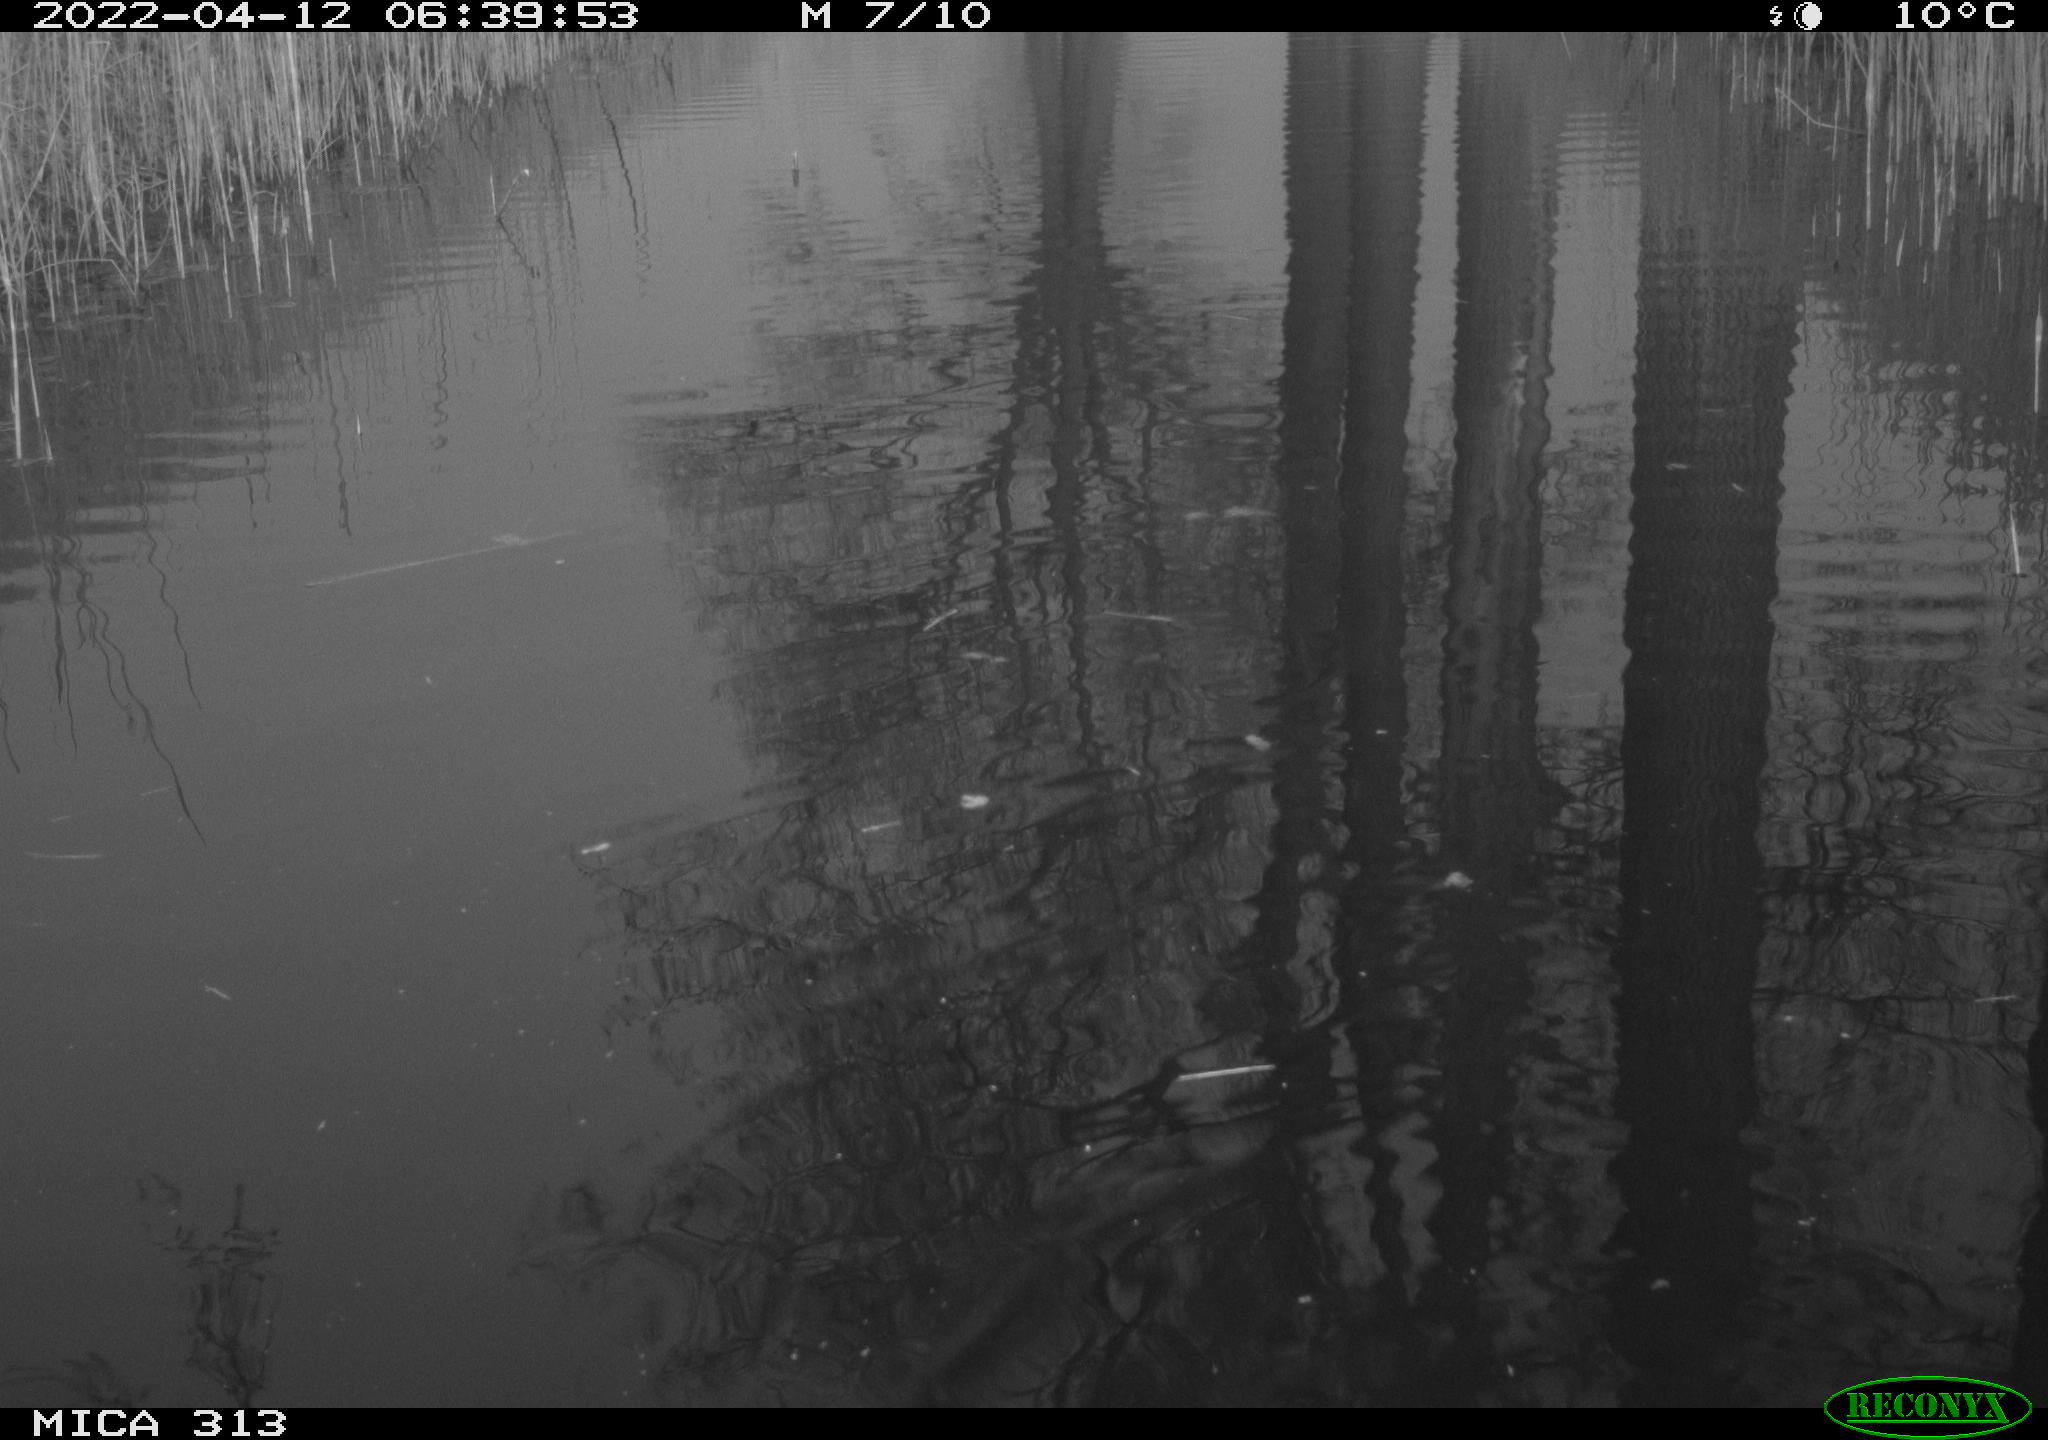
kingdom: Animalia
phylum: Chordata
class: Aves
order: Gruiformes
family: Rallidae
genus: Gallinula
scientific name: Gallinula chloropus
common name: Common moorhen
